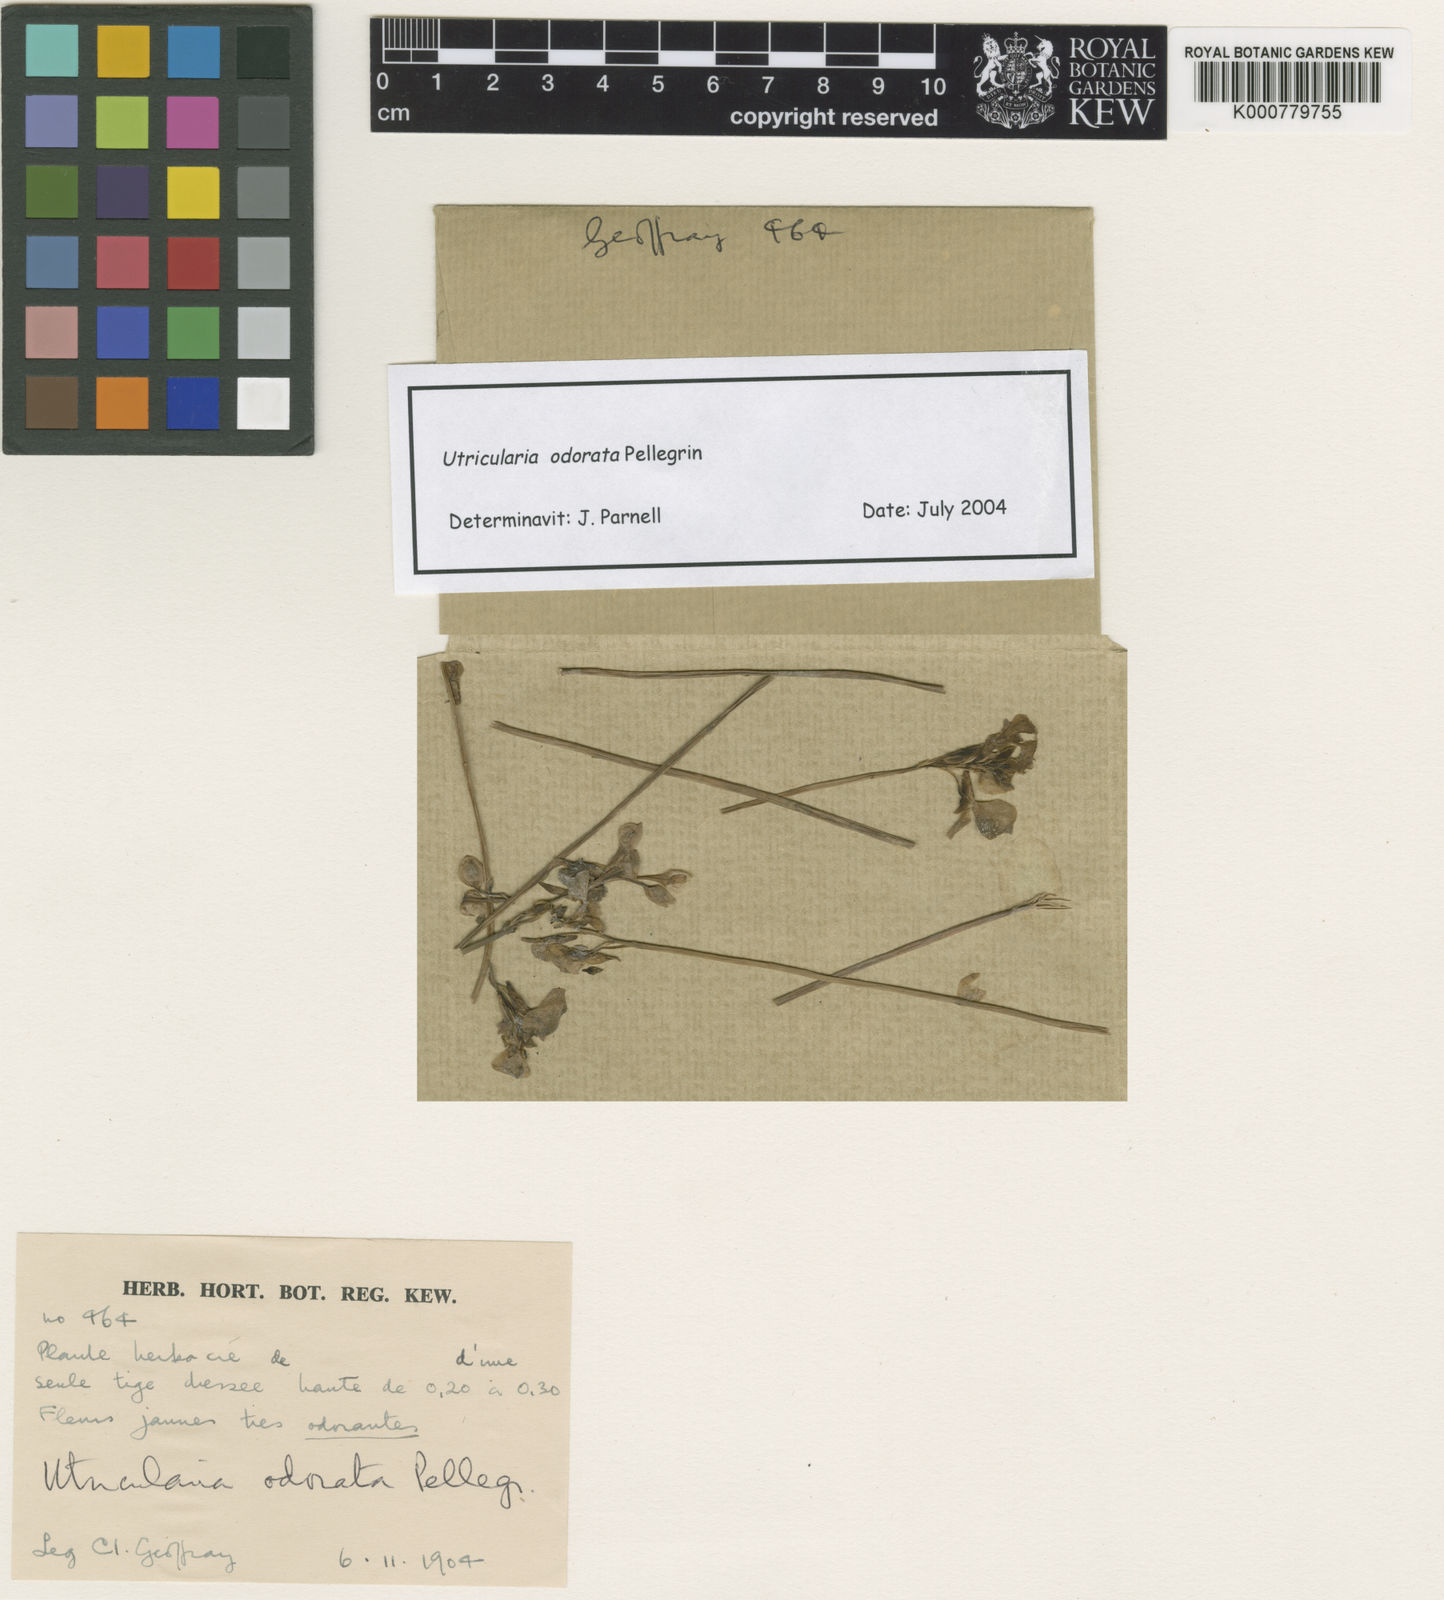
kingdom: Plantae
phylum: Tracheophyta
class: Magnoliopsida
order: Lamiales
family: Lentibulariaceae
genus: Utricularia
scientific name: Utricularia odorata
